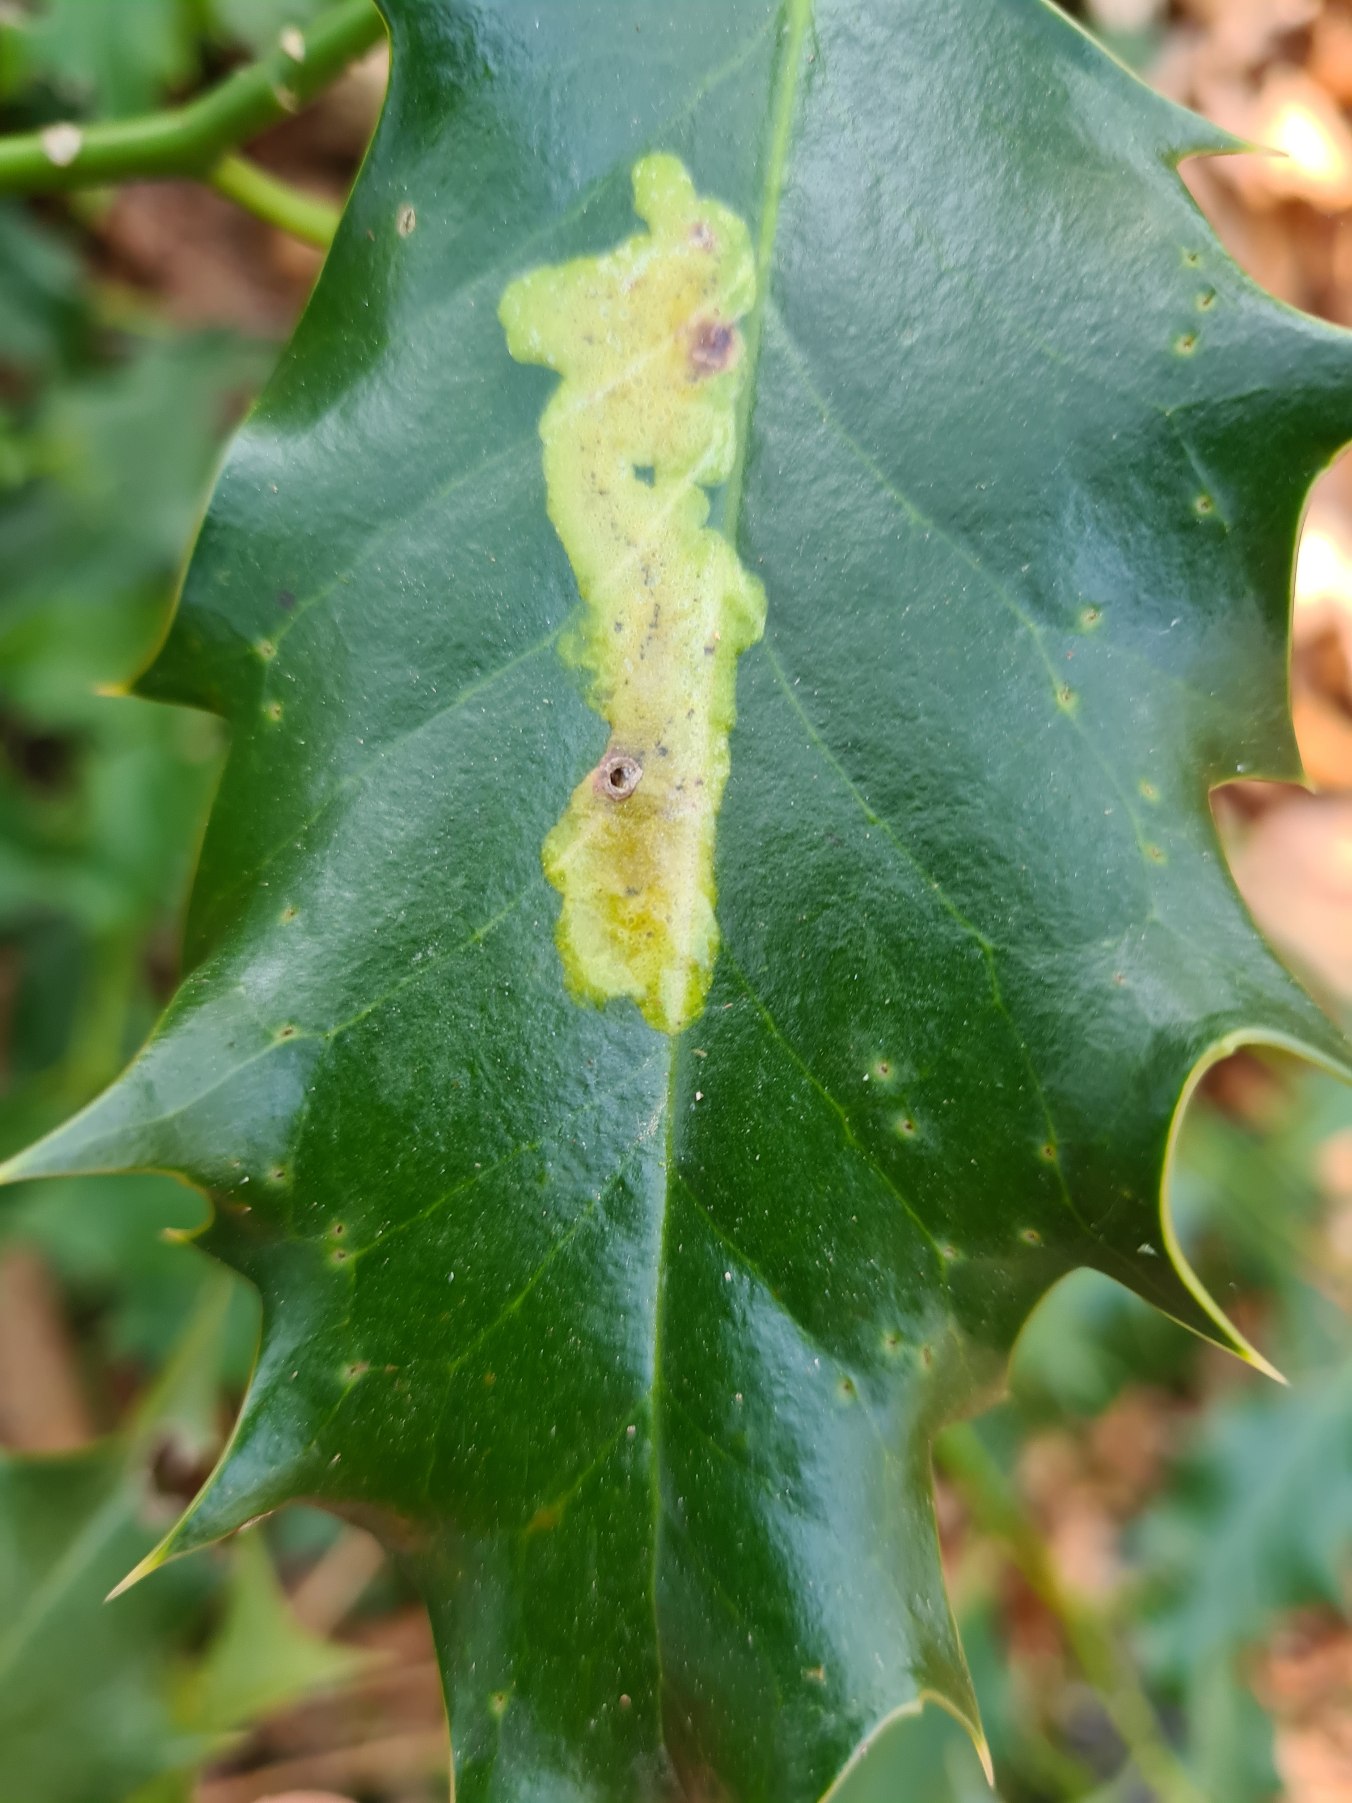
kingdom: Animalia
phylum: Arthropoda
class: Insecta
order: Diptera
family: Agromyzidae
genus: Phytomyza
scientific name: Phytomyza ilicis
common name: Kristtornminérflue
